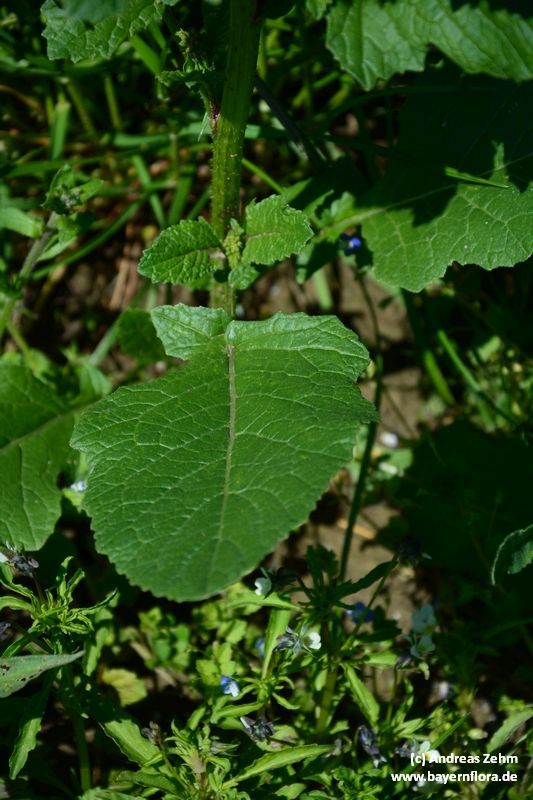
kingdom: Plantae
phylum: Tracheophyta
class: Magnoliopsida
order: Brassicales
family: Brassicaceae
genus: Sinapis
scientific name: Sinapis arvensis
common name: Charlock
